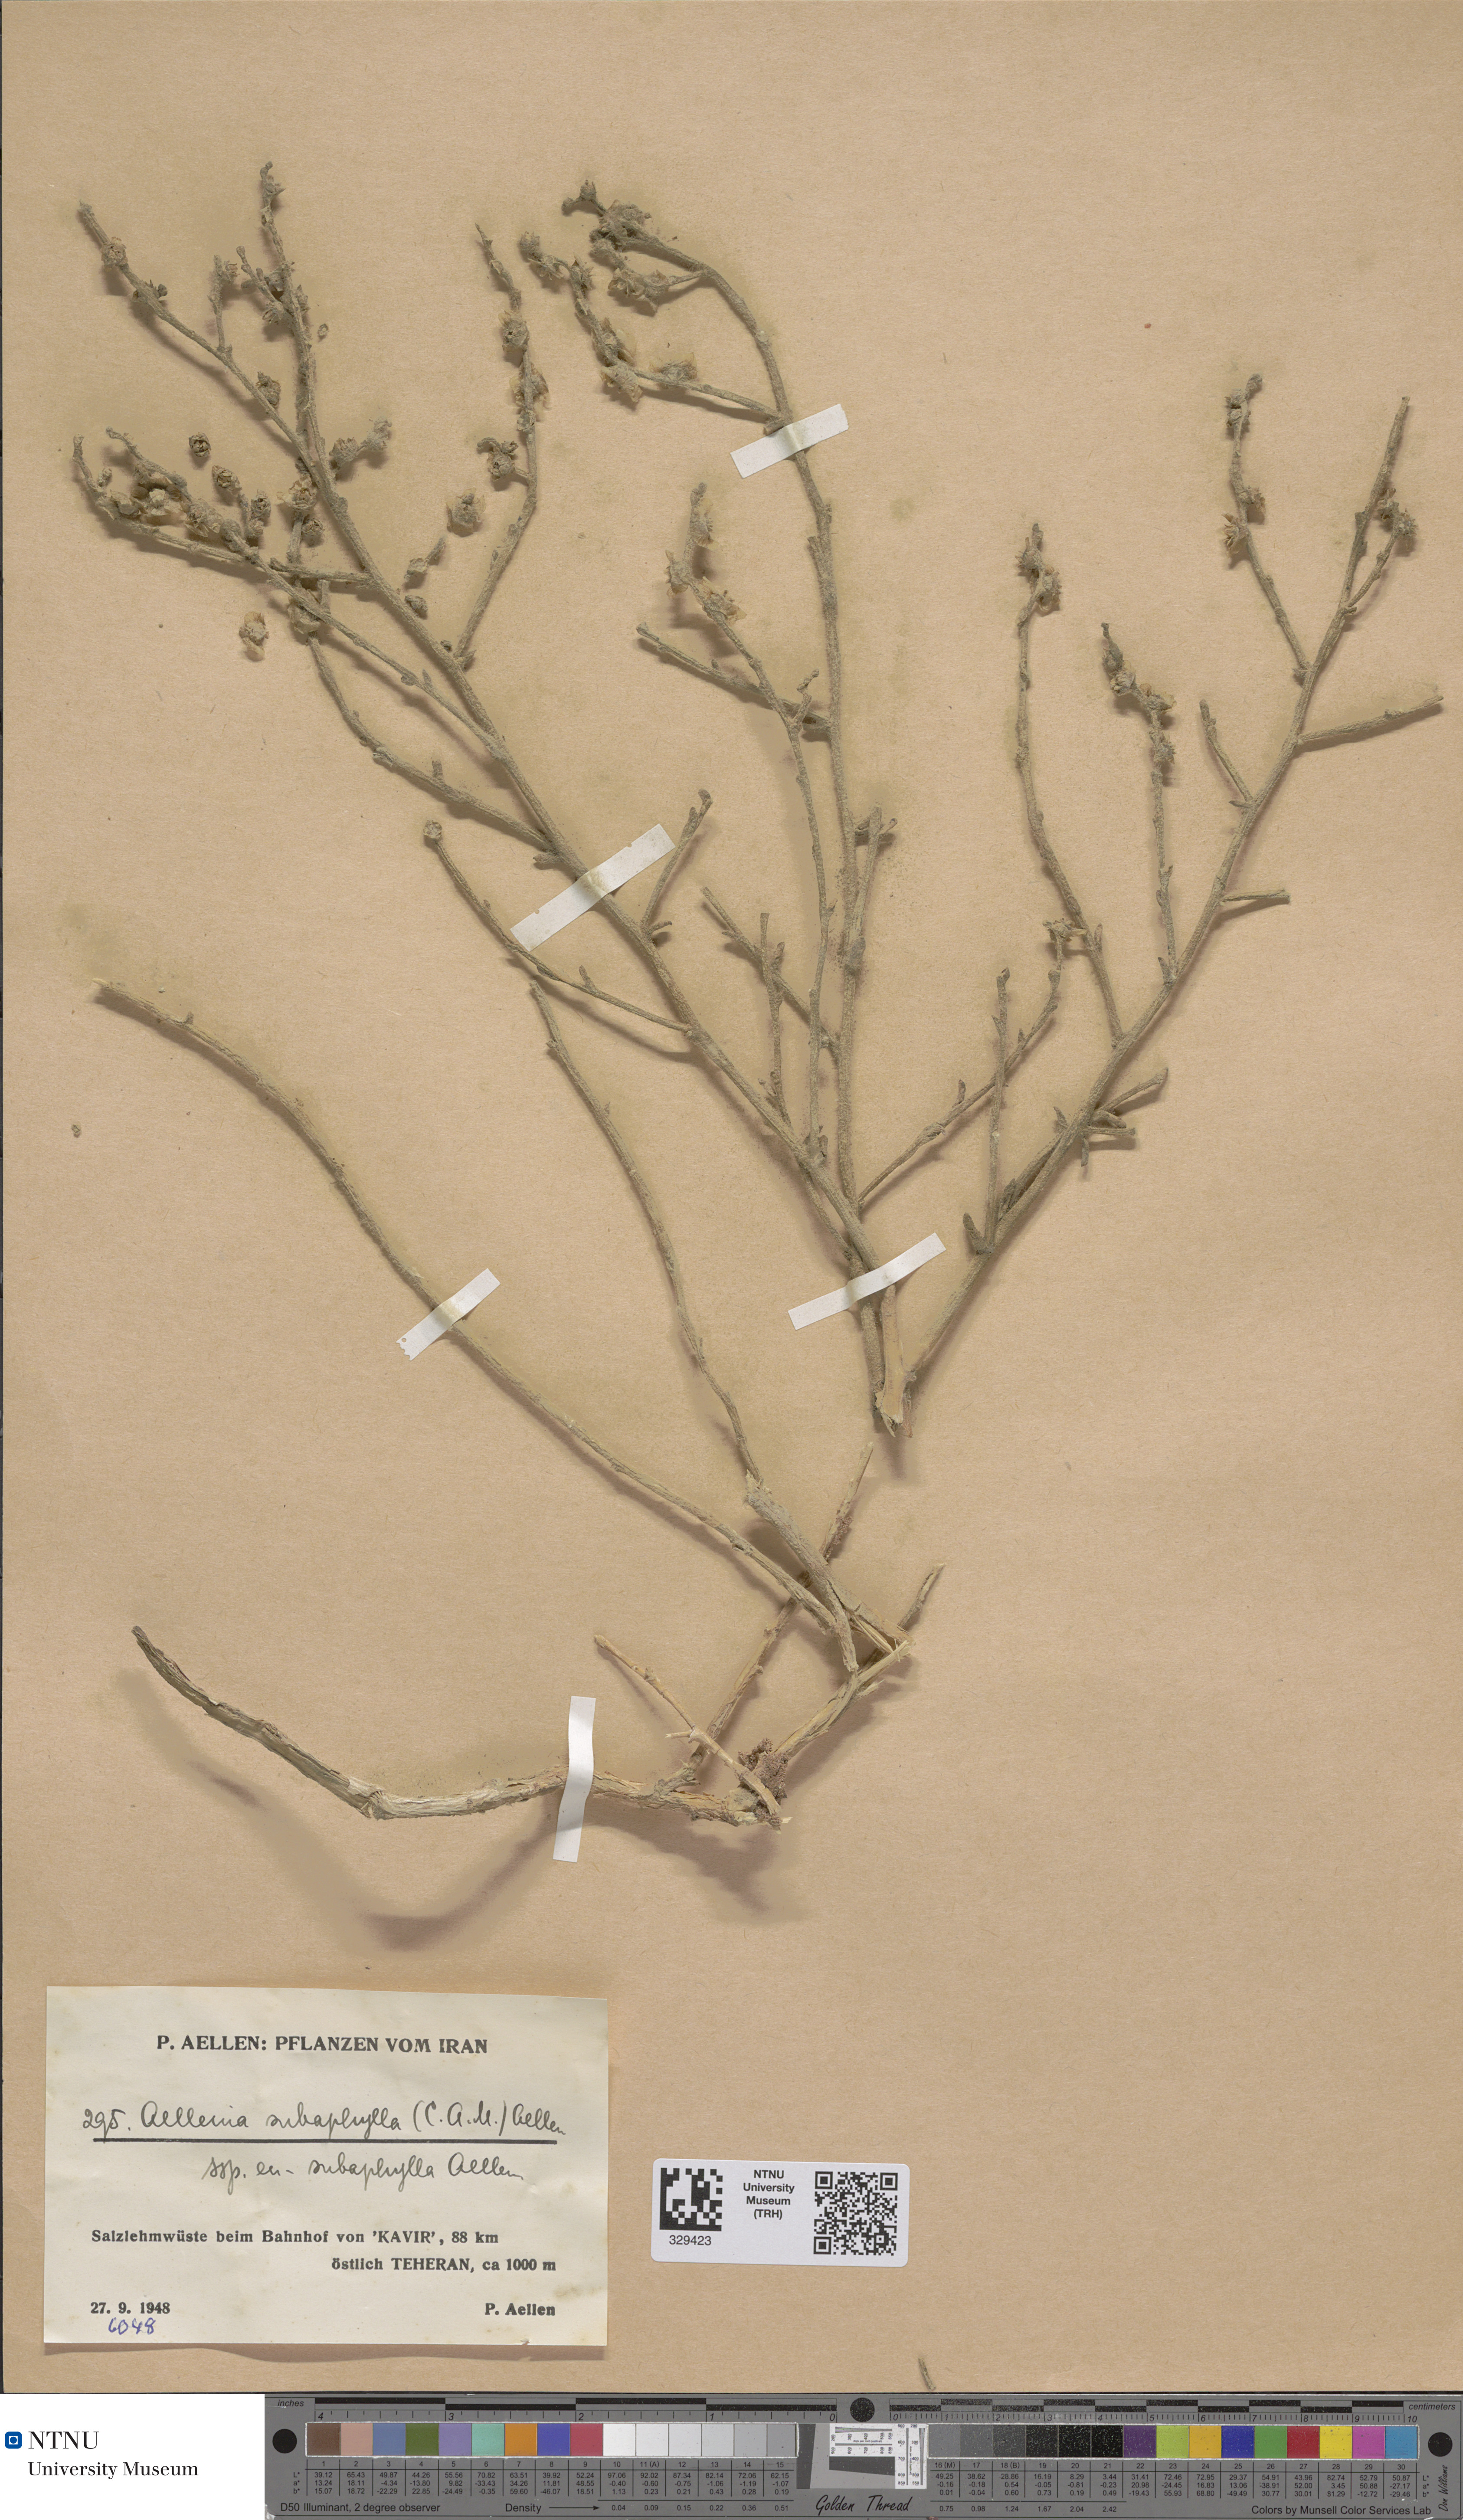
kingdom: Plantae
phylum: Tracheophyta
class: Magnoliopsida
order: Caryophyllales
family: Amaranthaceae
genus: Halothamnus
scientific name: Halothamnus subaphyllus
